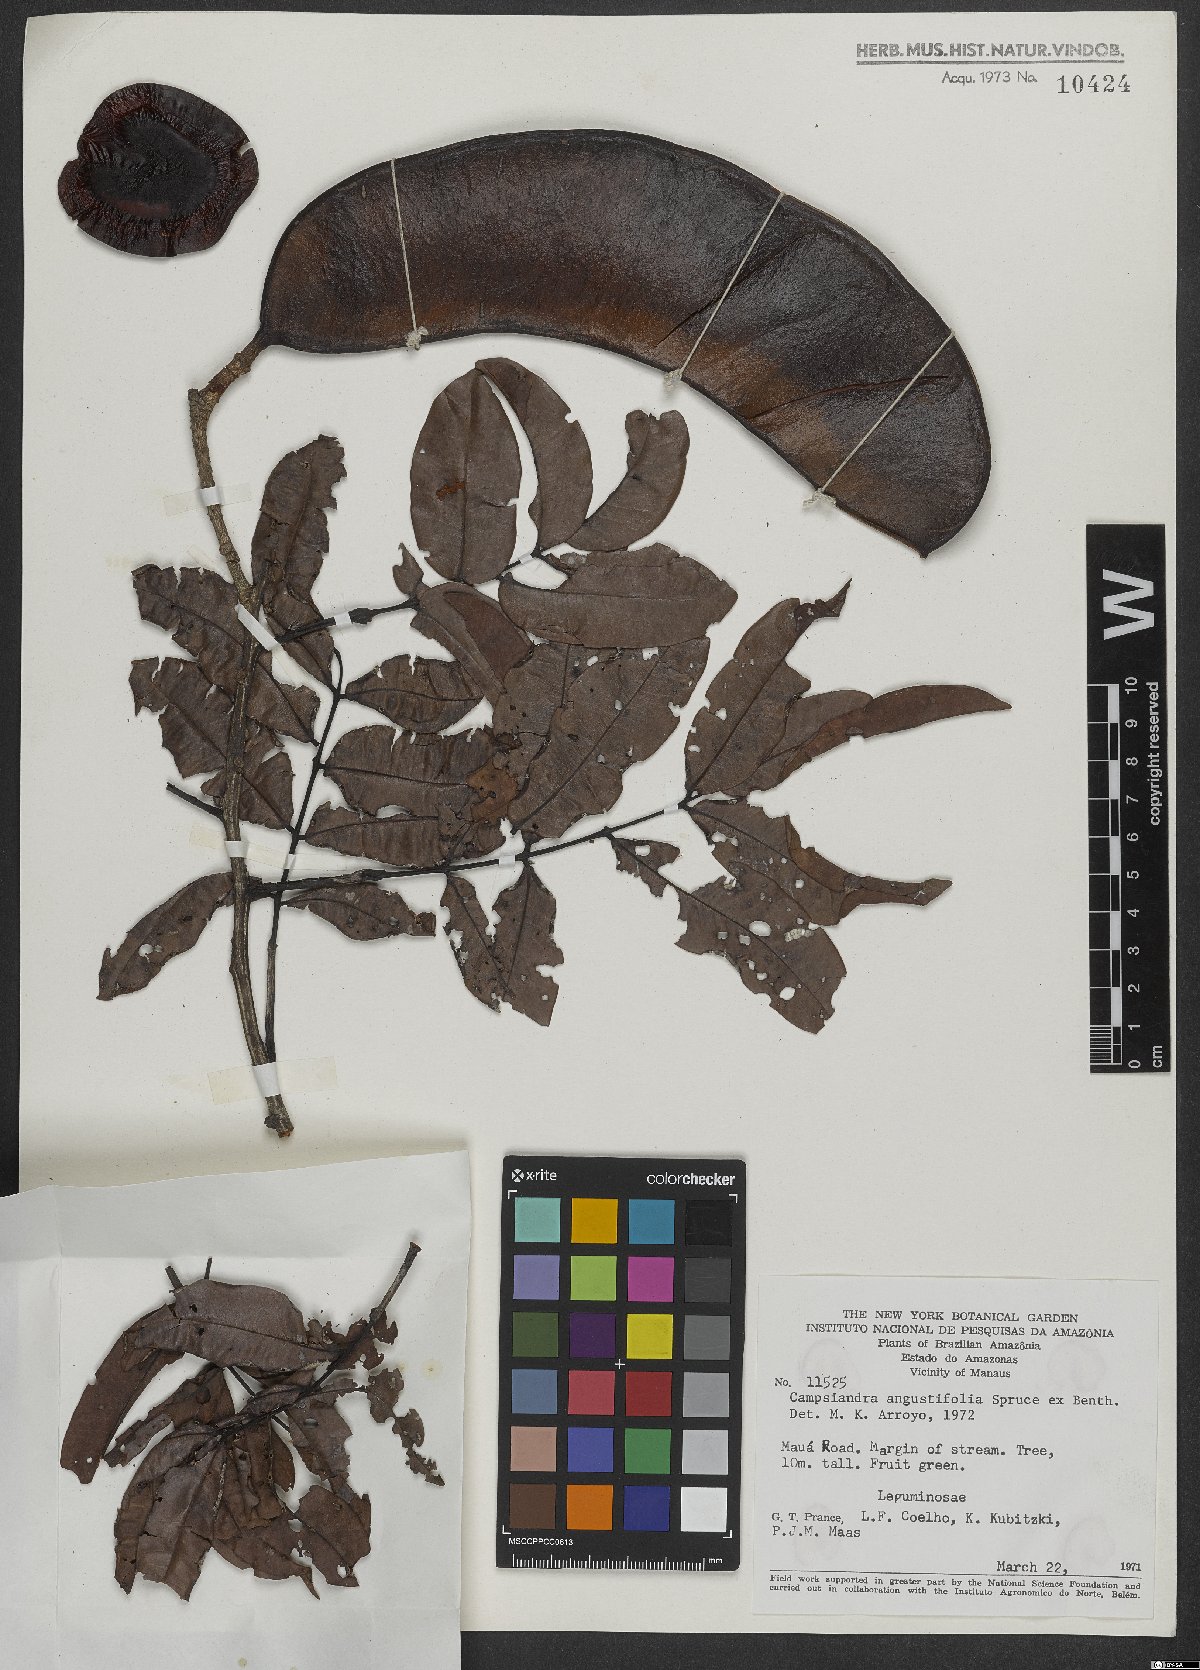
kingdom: Plantae
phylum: Tracheophyta
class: Magnoliopsida
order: Fabales
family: Fabaceae
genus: Campsiandra
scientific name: Campsiandra angustifolia
